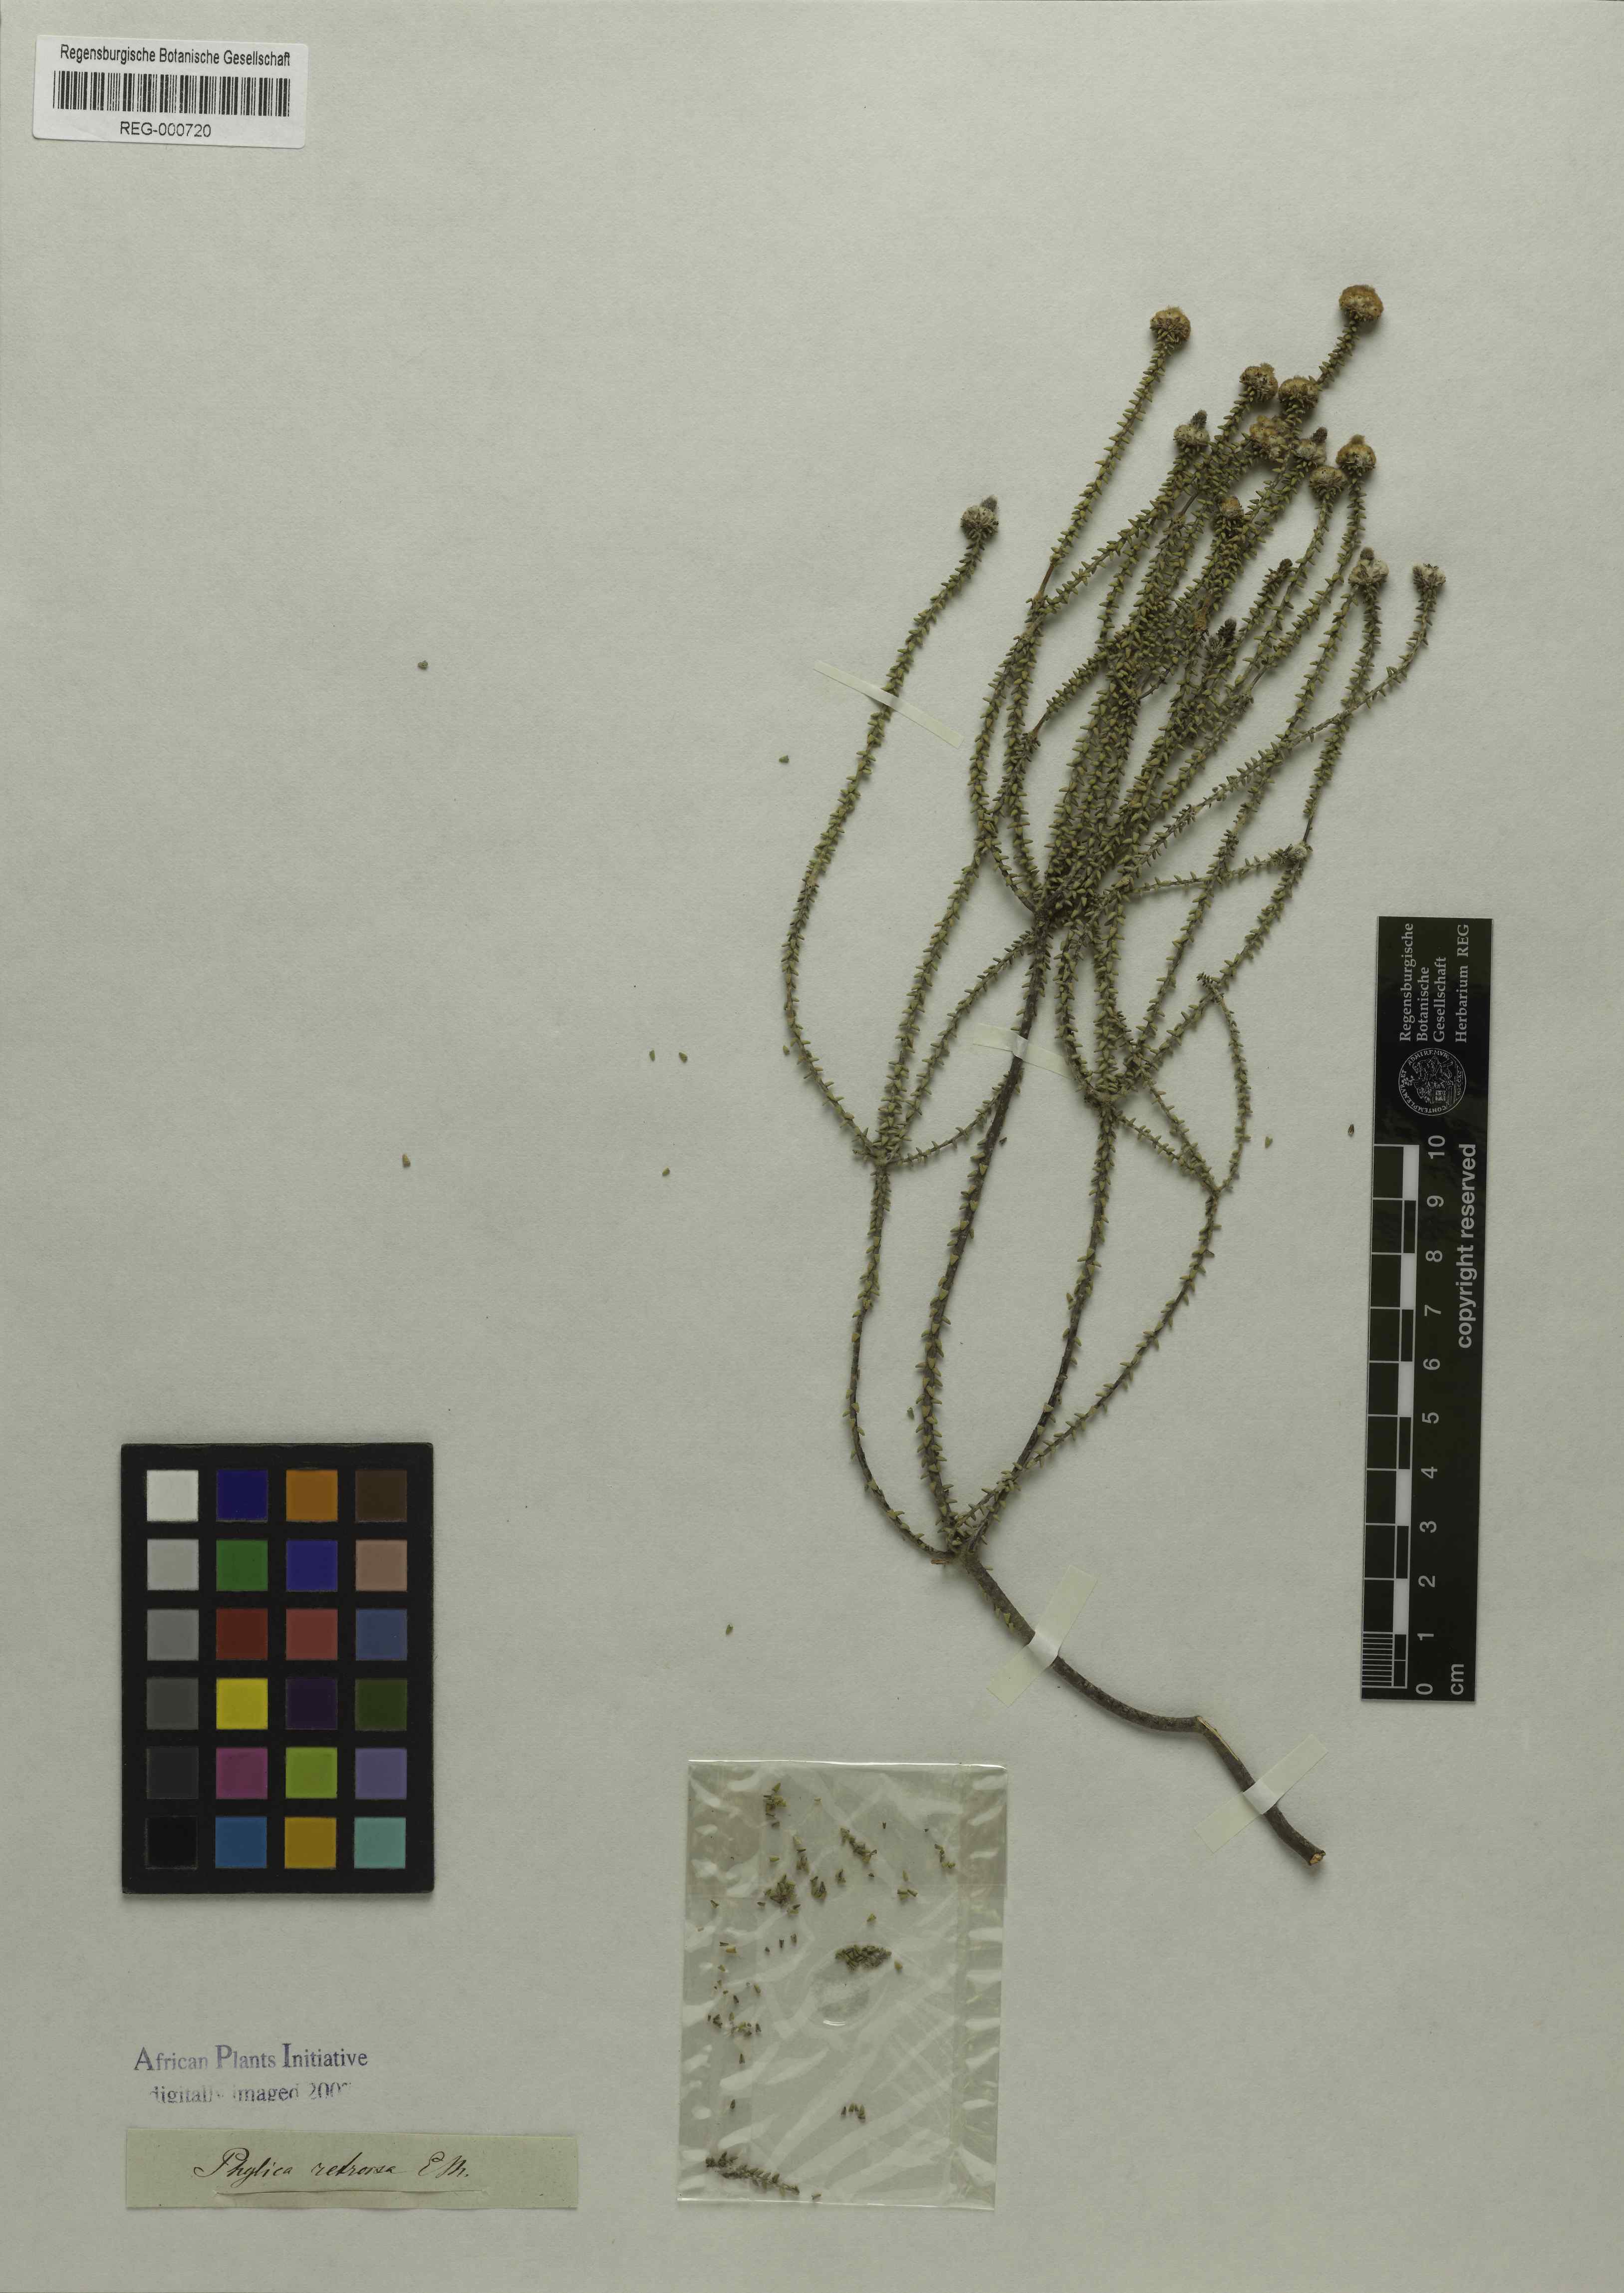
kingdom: Plantae
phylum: Tracheophyta
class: Magnoliopsida
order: Rosales
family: Rhamnaceae
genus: Phylica
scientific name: Phylica retrorsa
